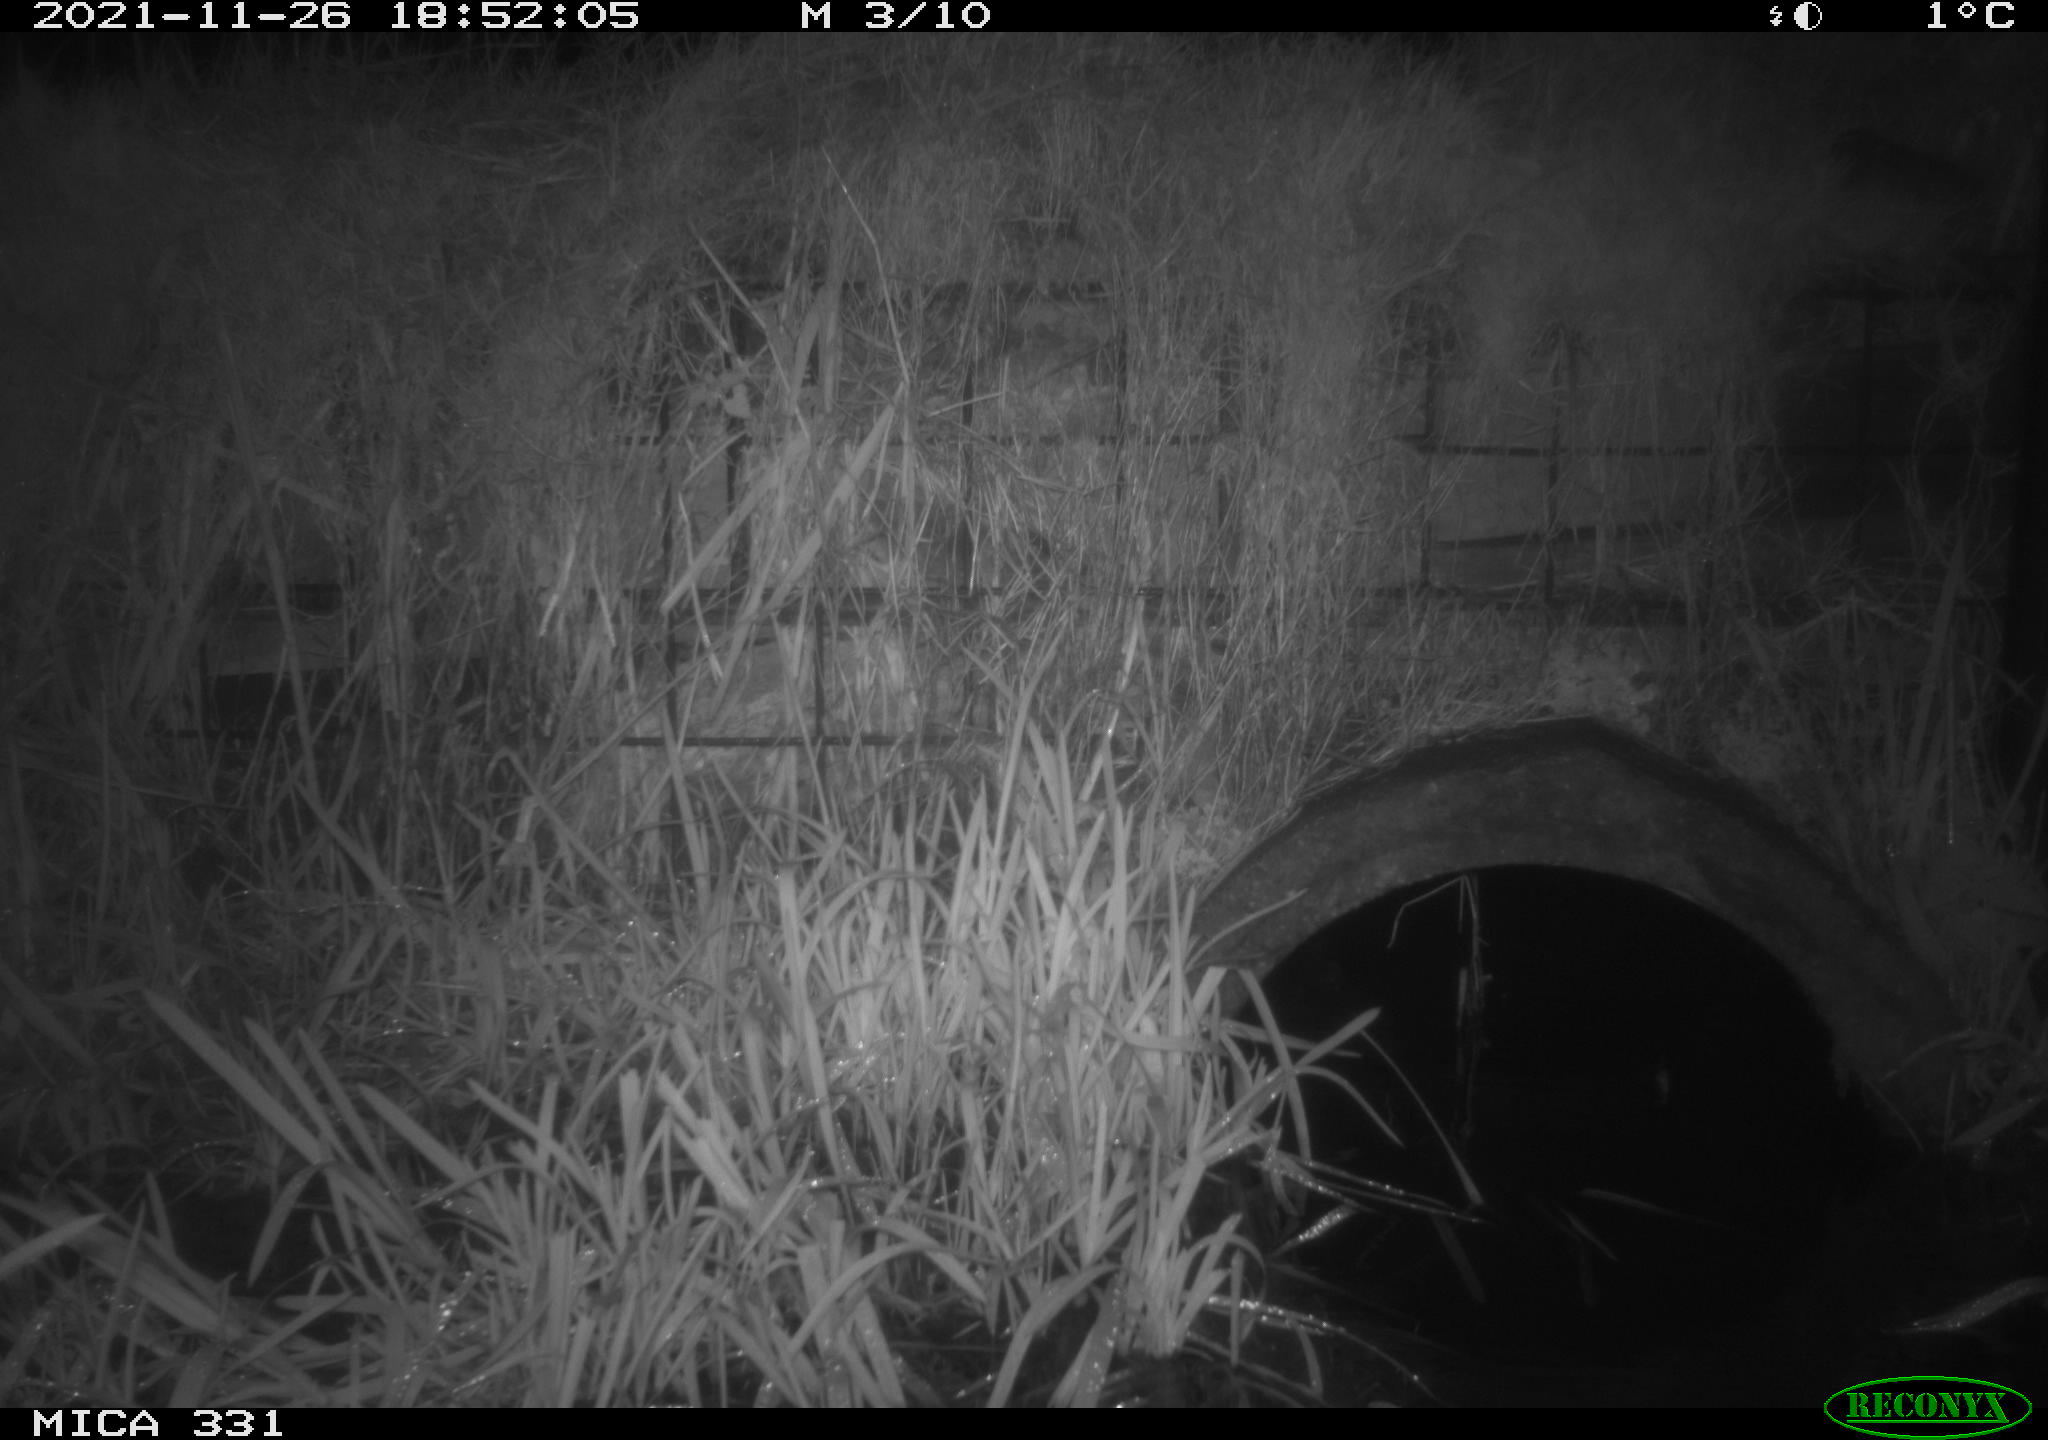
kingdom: Animalia
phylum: Chordata
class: Mammalia
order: Rodentia
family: Muridae
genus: Rattus
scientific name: Rattus norvegicus
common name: Brown rat
